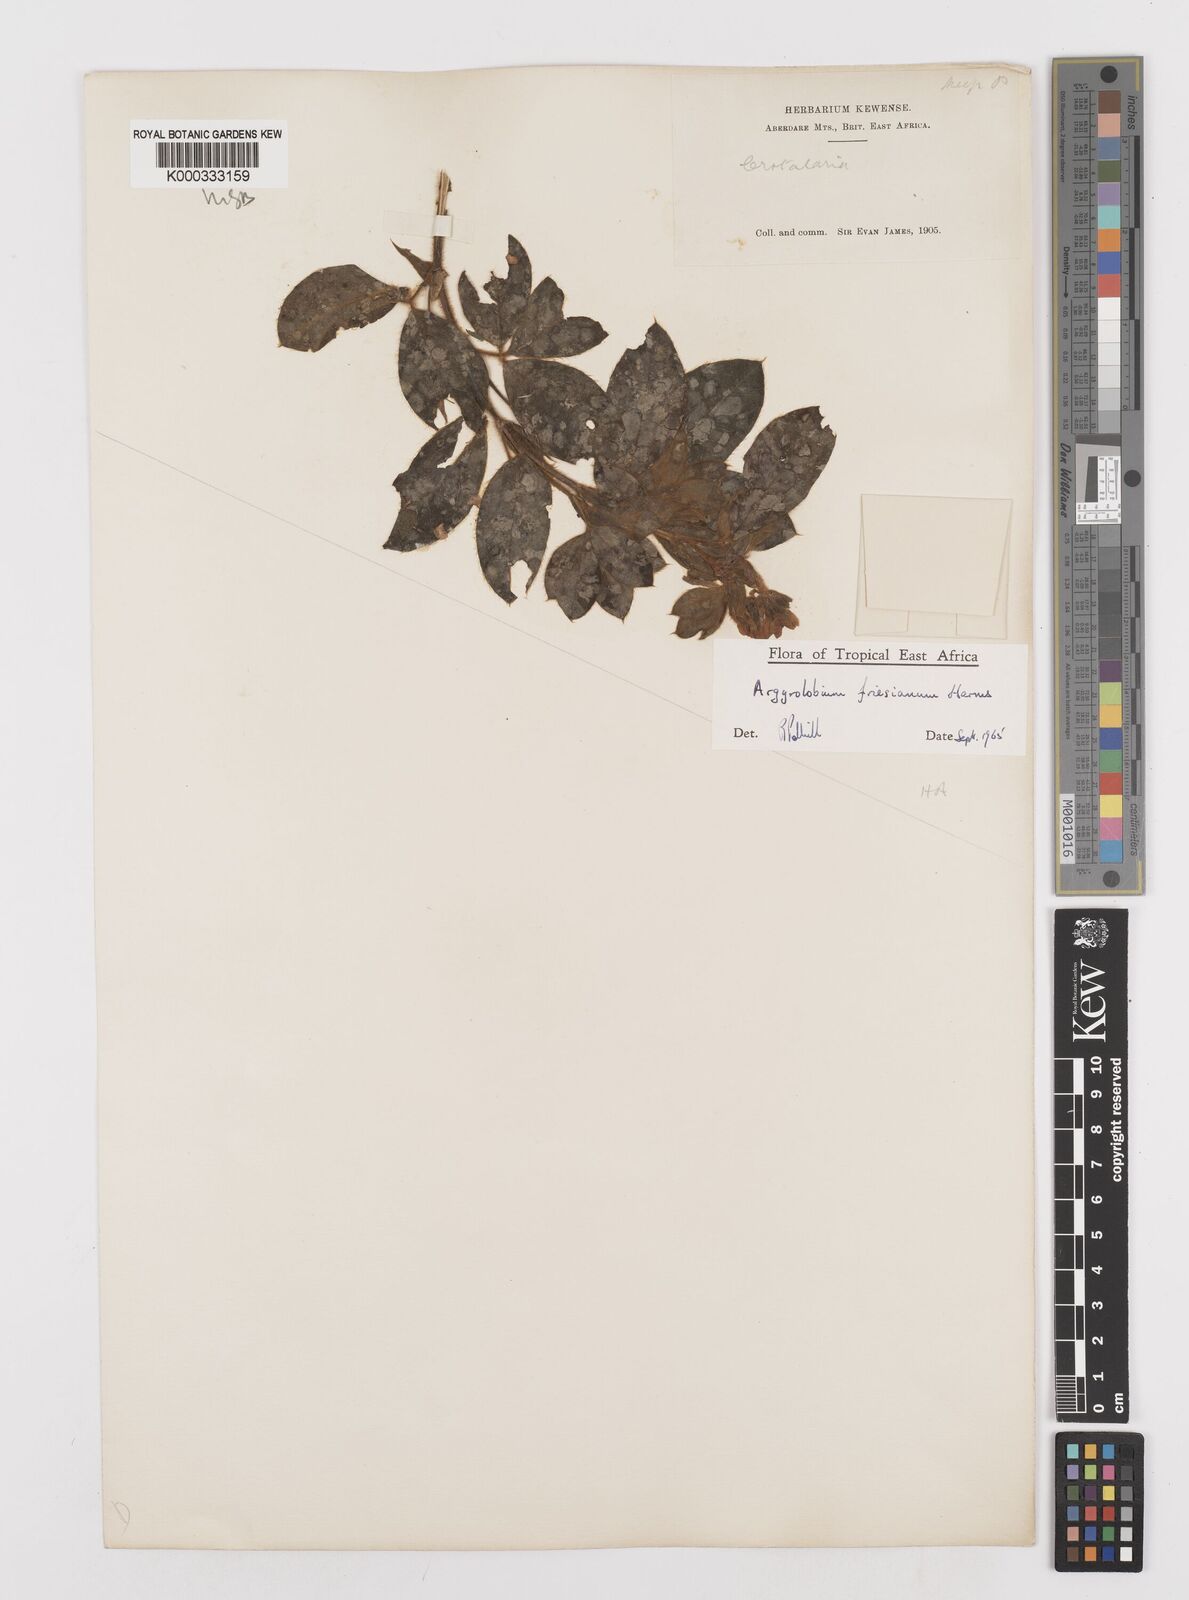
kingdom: Plantae
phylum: Tracheophyta
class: Magnoliopsida
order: Fabales
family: Fabaceae
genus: Argyrolobium
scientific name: Argyrolobium friesianum
